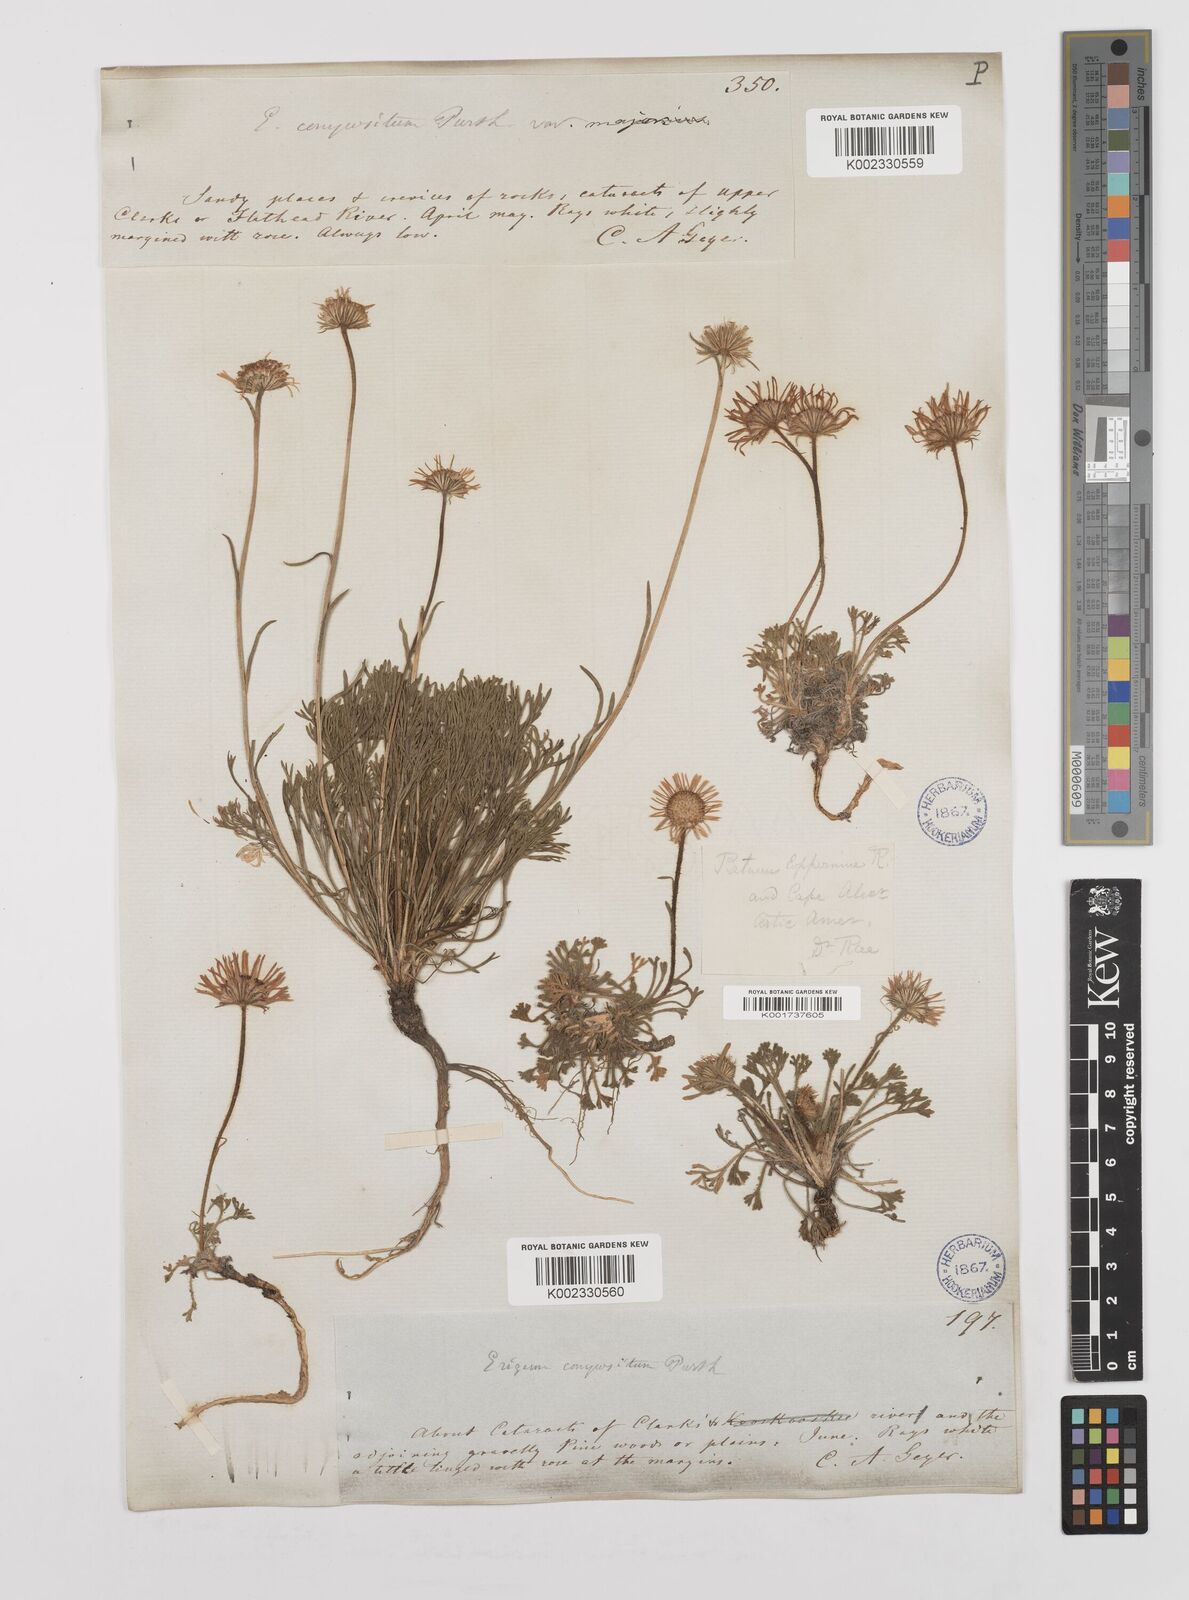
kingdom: Plantae
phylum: Tracheophyta
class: Magnoliopsida
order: Asterales
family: Asteraceae
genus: Erigeron
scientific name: Erigeron compositus
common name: Dwarf mountain fleabane
